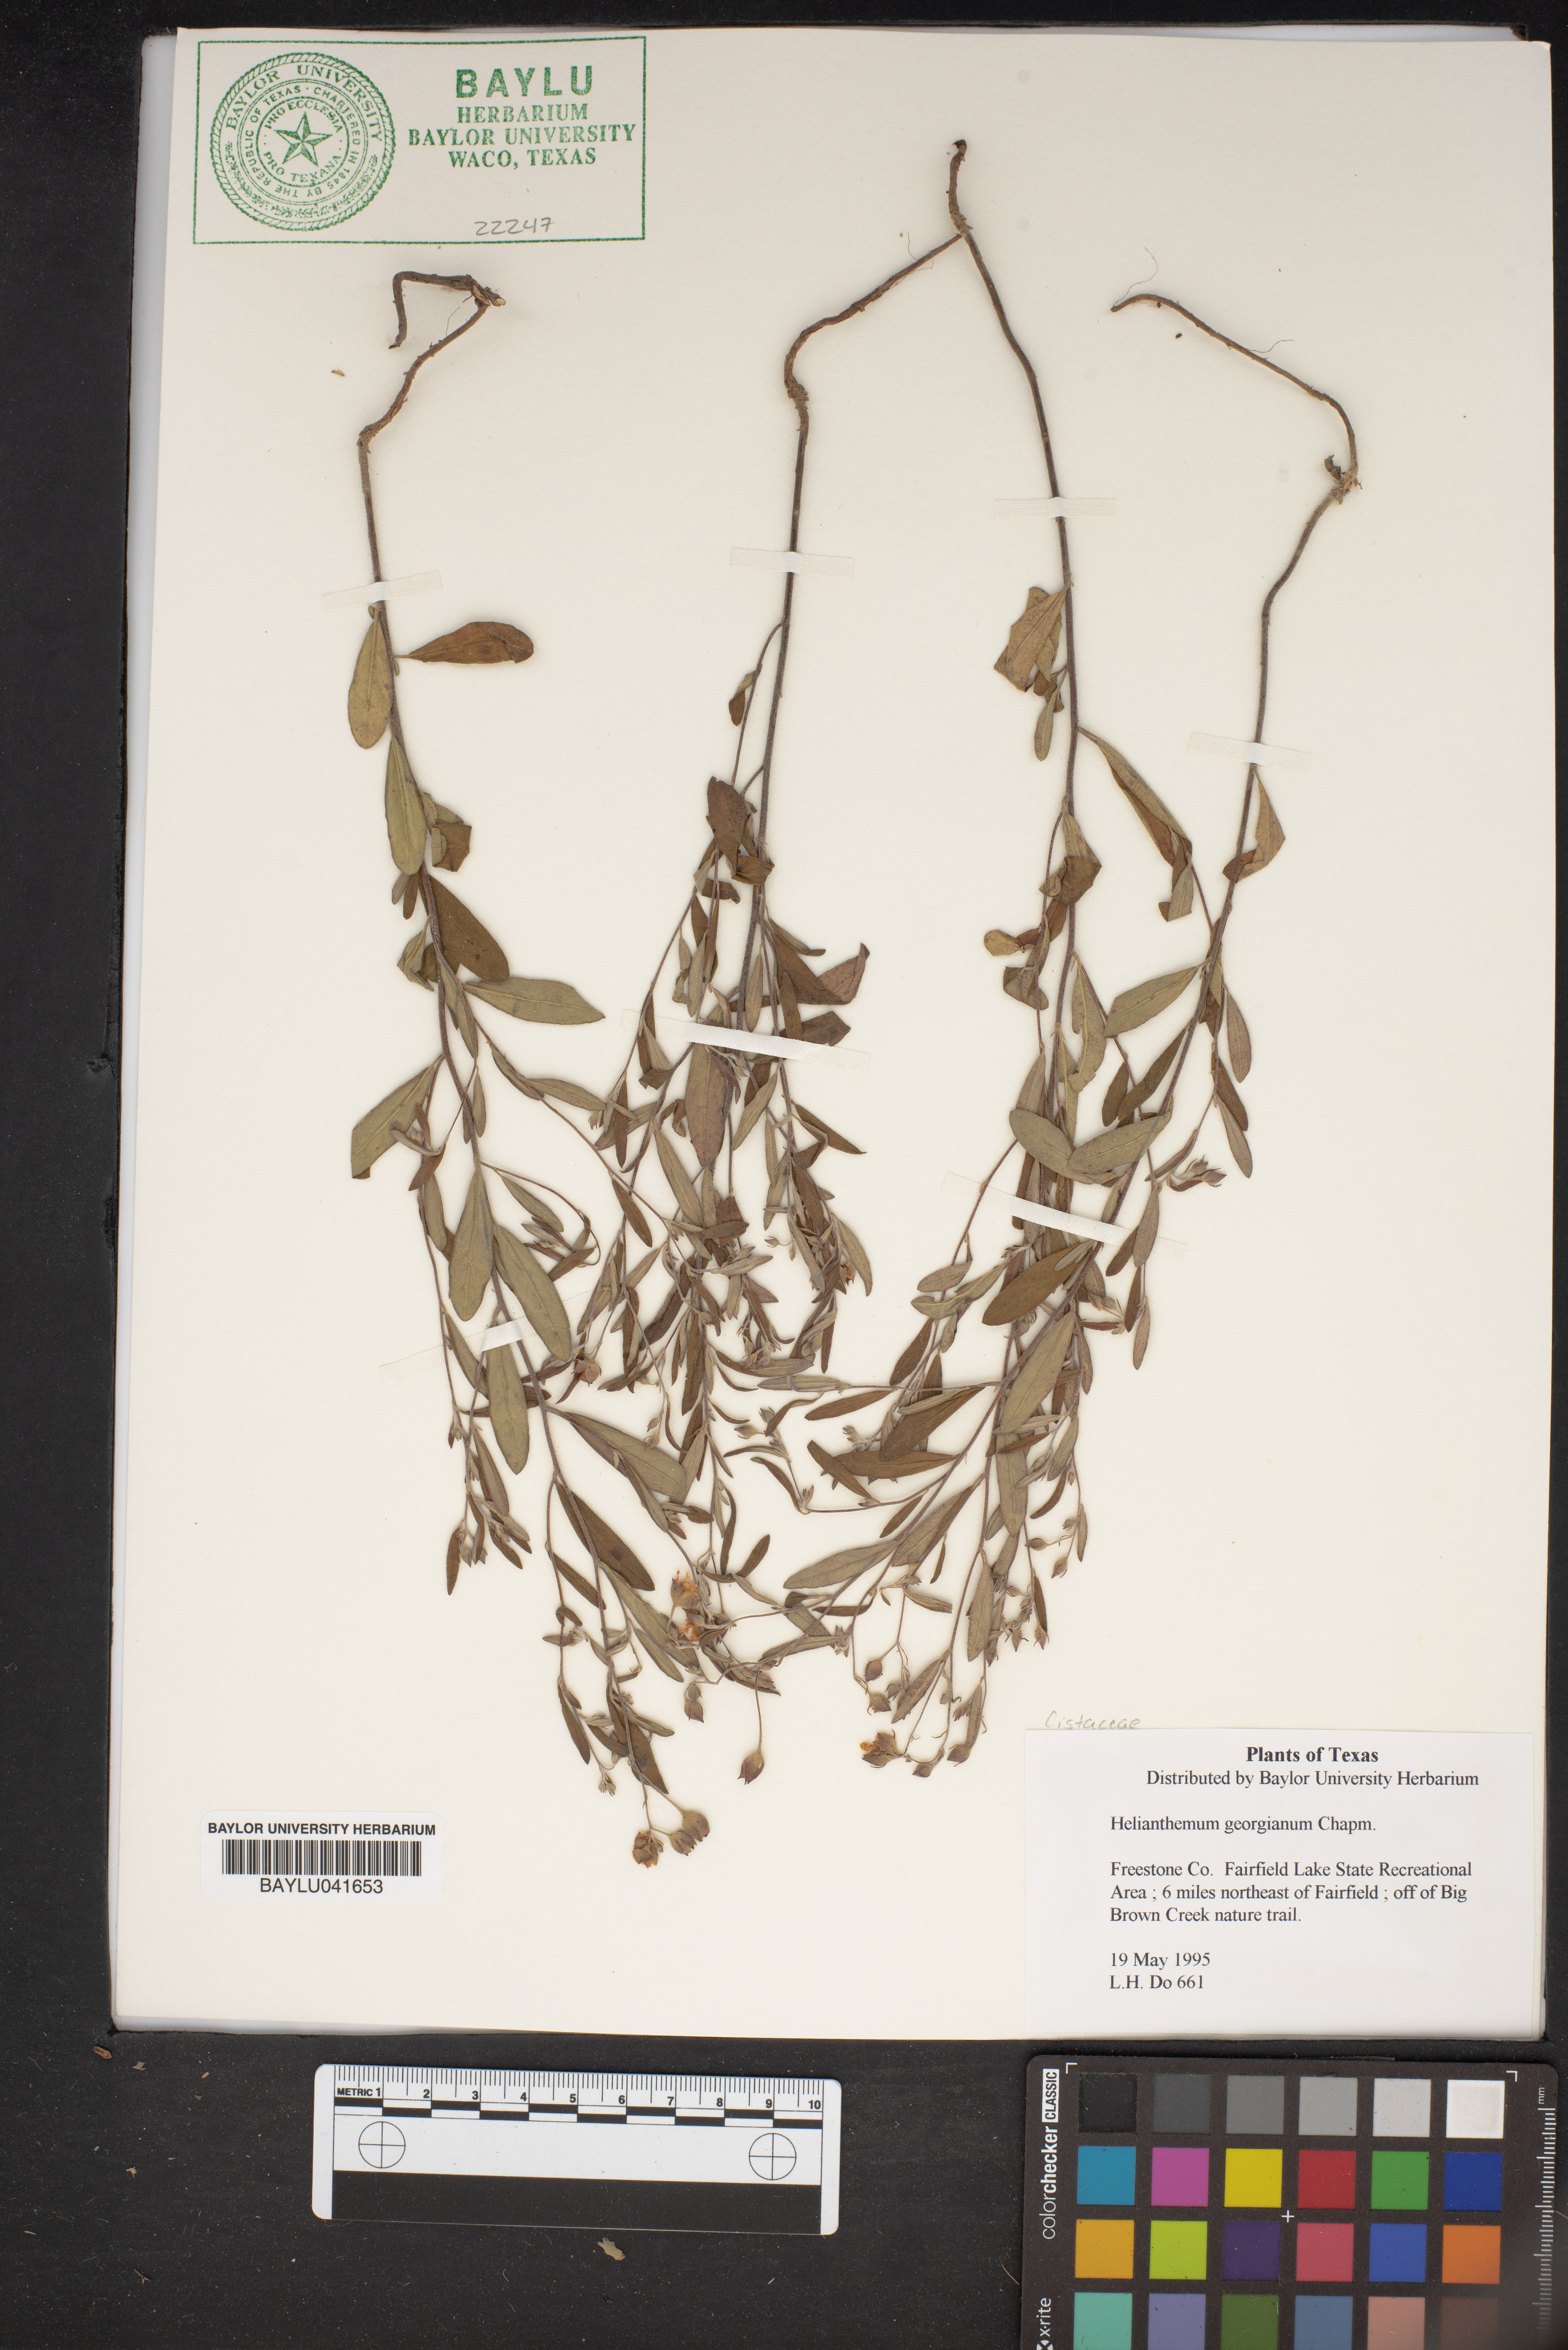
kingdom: Plantae
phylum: Tracheophyta
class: Magnoliopsida
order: Malvales
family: Cistaceae
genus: Crocanthemum
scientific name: Crocanthemum georgianum
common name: Georgia frostweed
